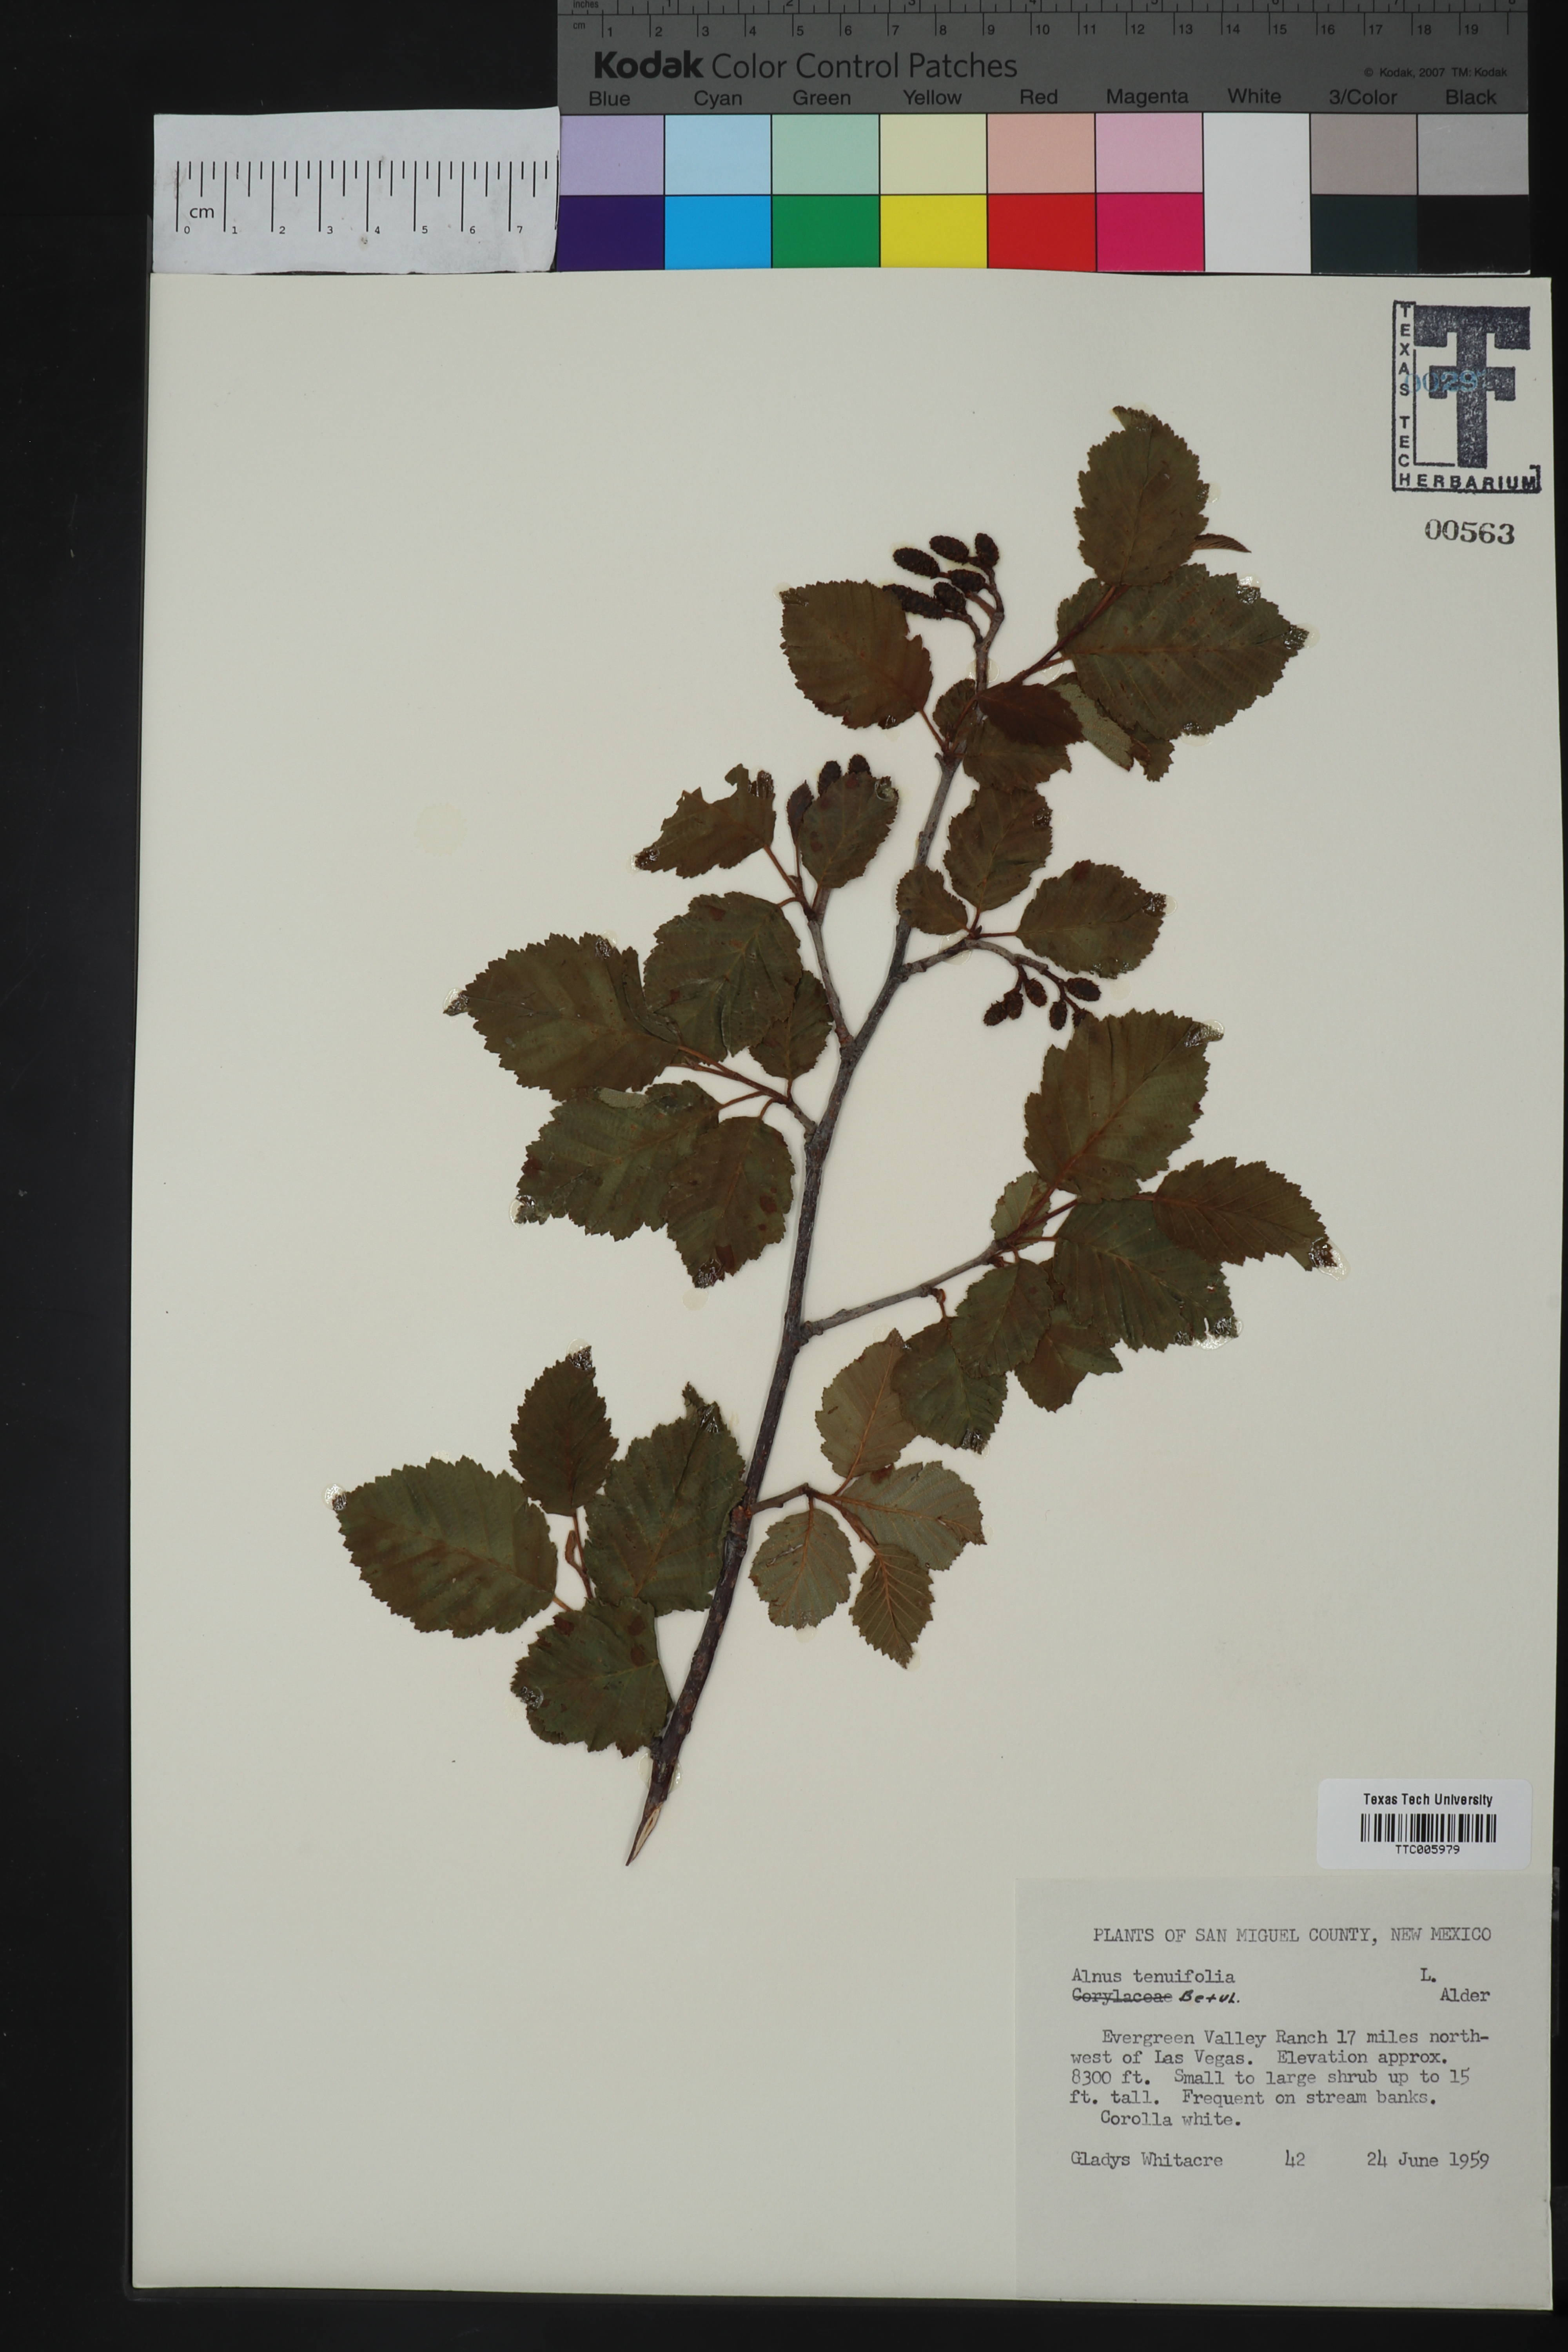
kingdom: Plantae
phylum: Tracheophyta
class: Magnoliopsida
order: Fagales
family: Betulaceae
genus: Alnus
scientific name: Alnus incana
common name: Grey alder
